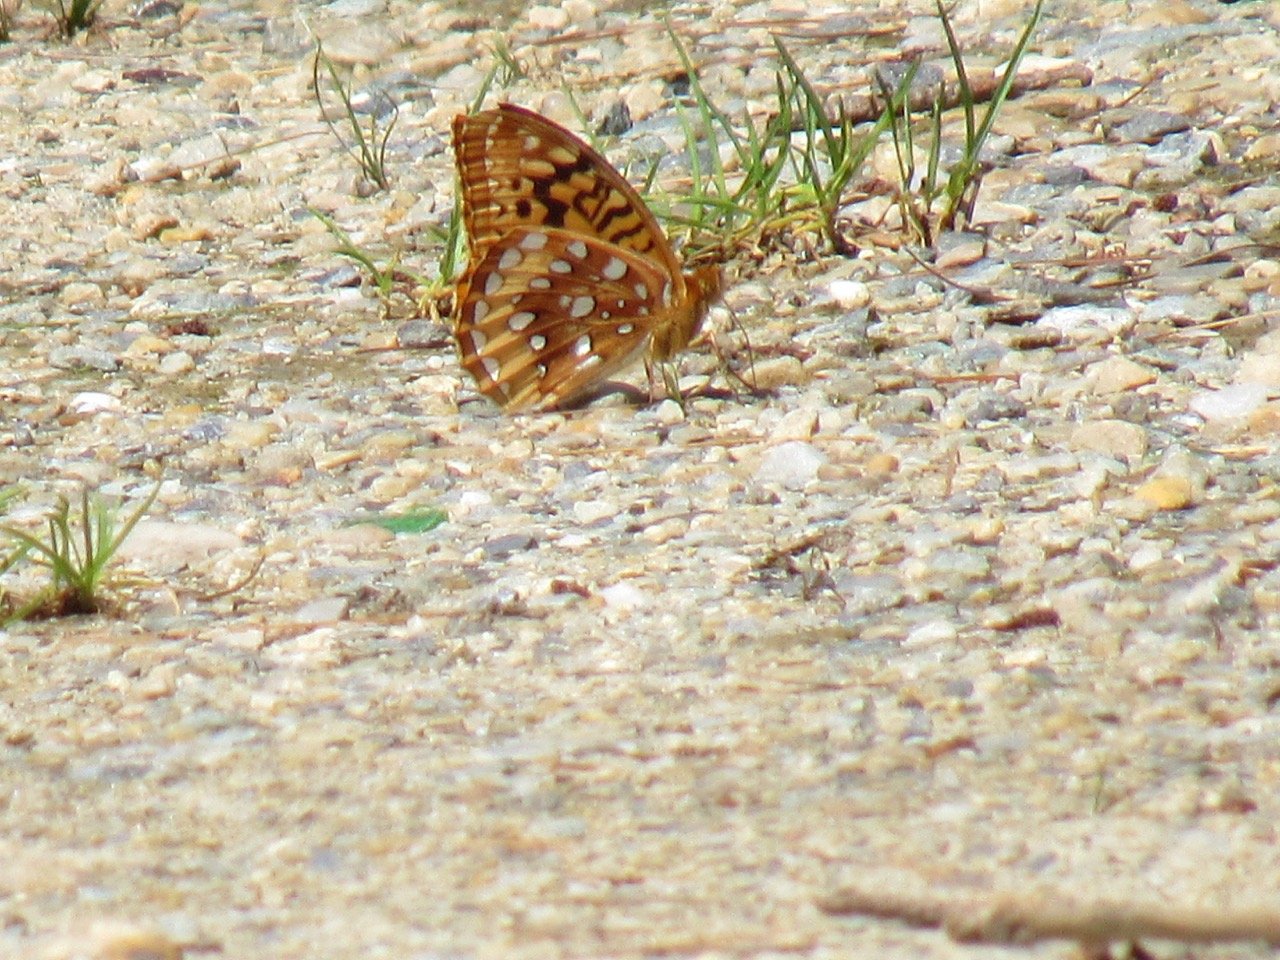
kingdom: Animalia
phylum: Arthropoda
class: Insecta
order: Lepidoptera
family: Nymphalidae
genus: Speyeria
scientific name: Speyeria cybele
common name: Great Spangled Fritillary
